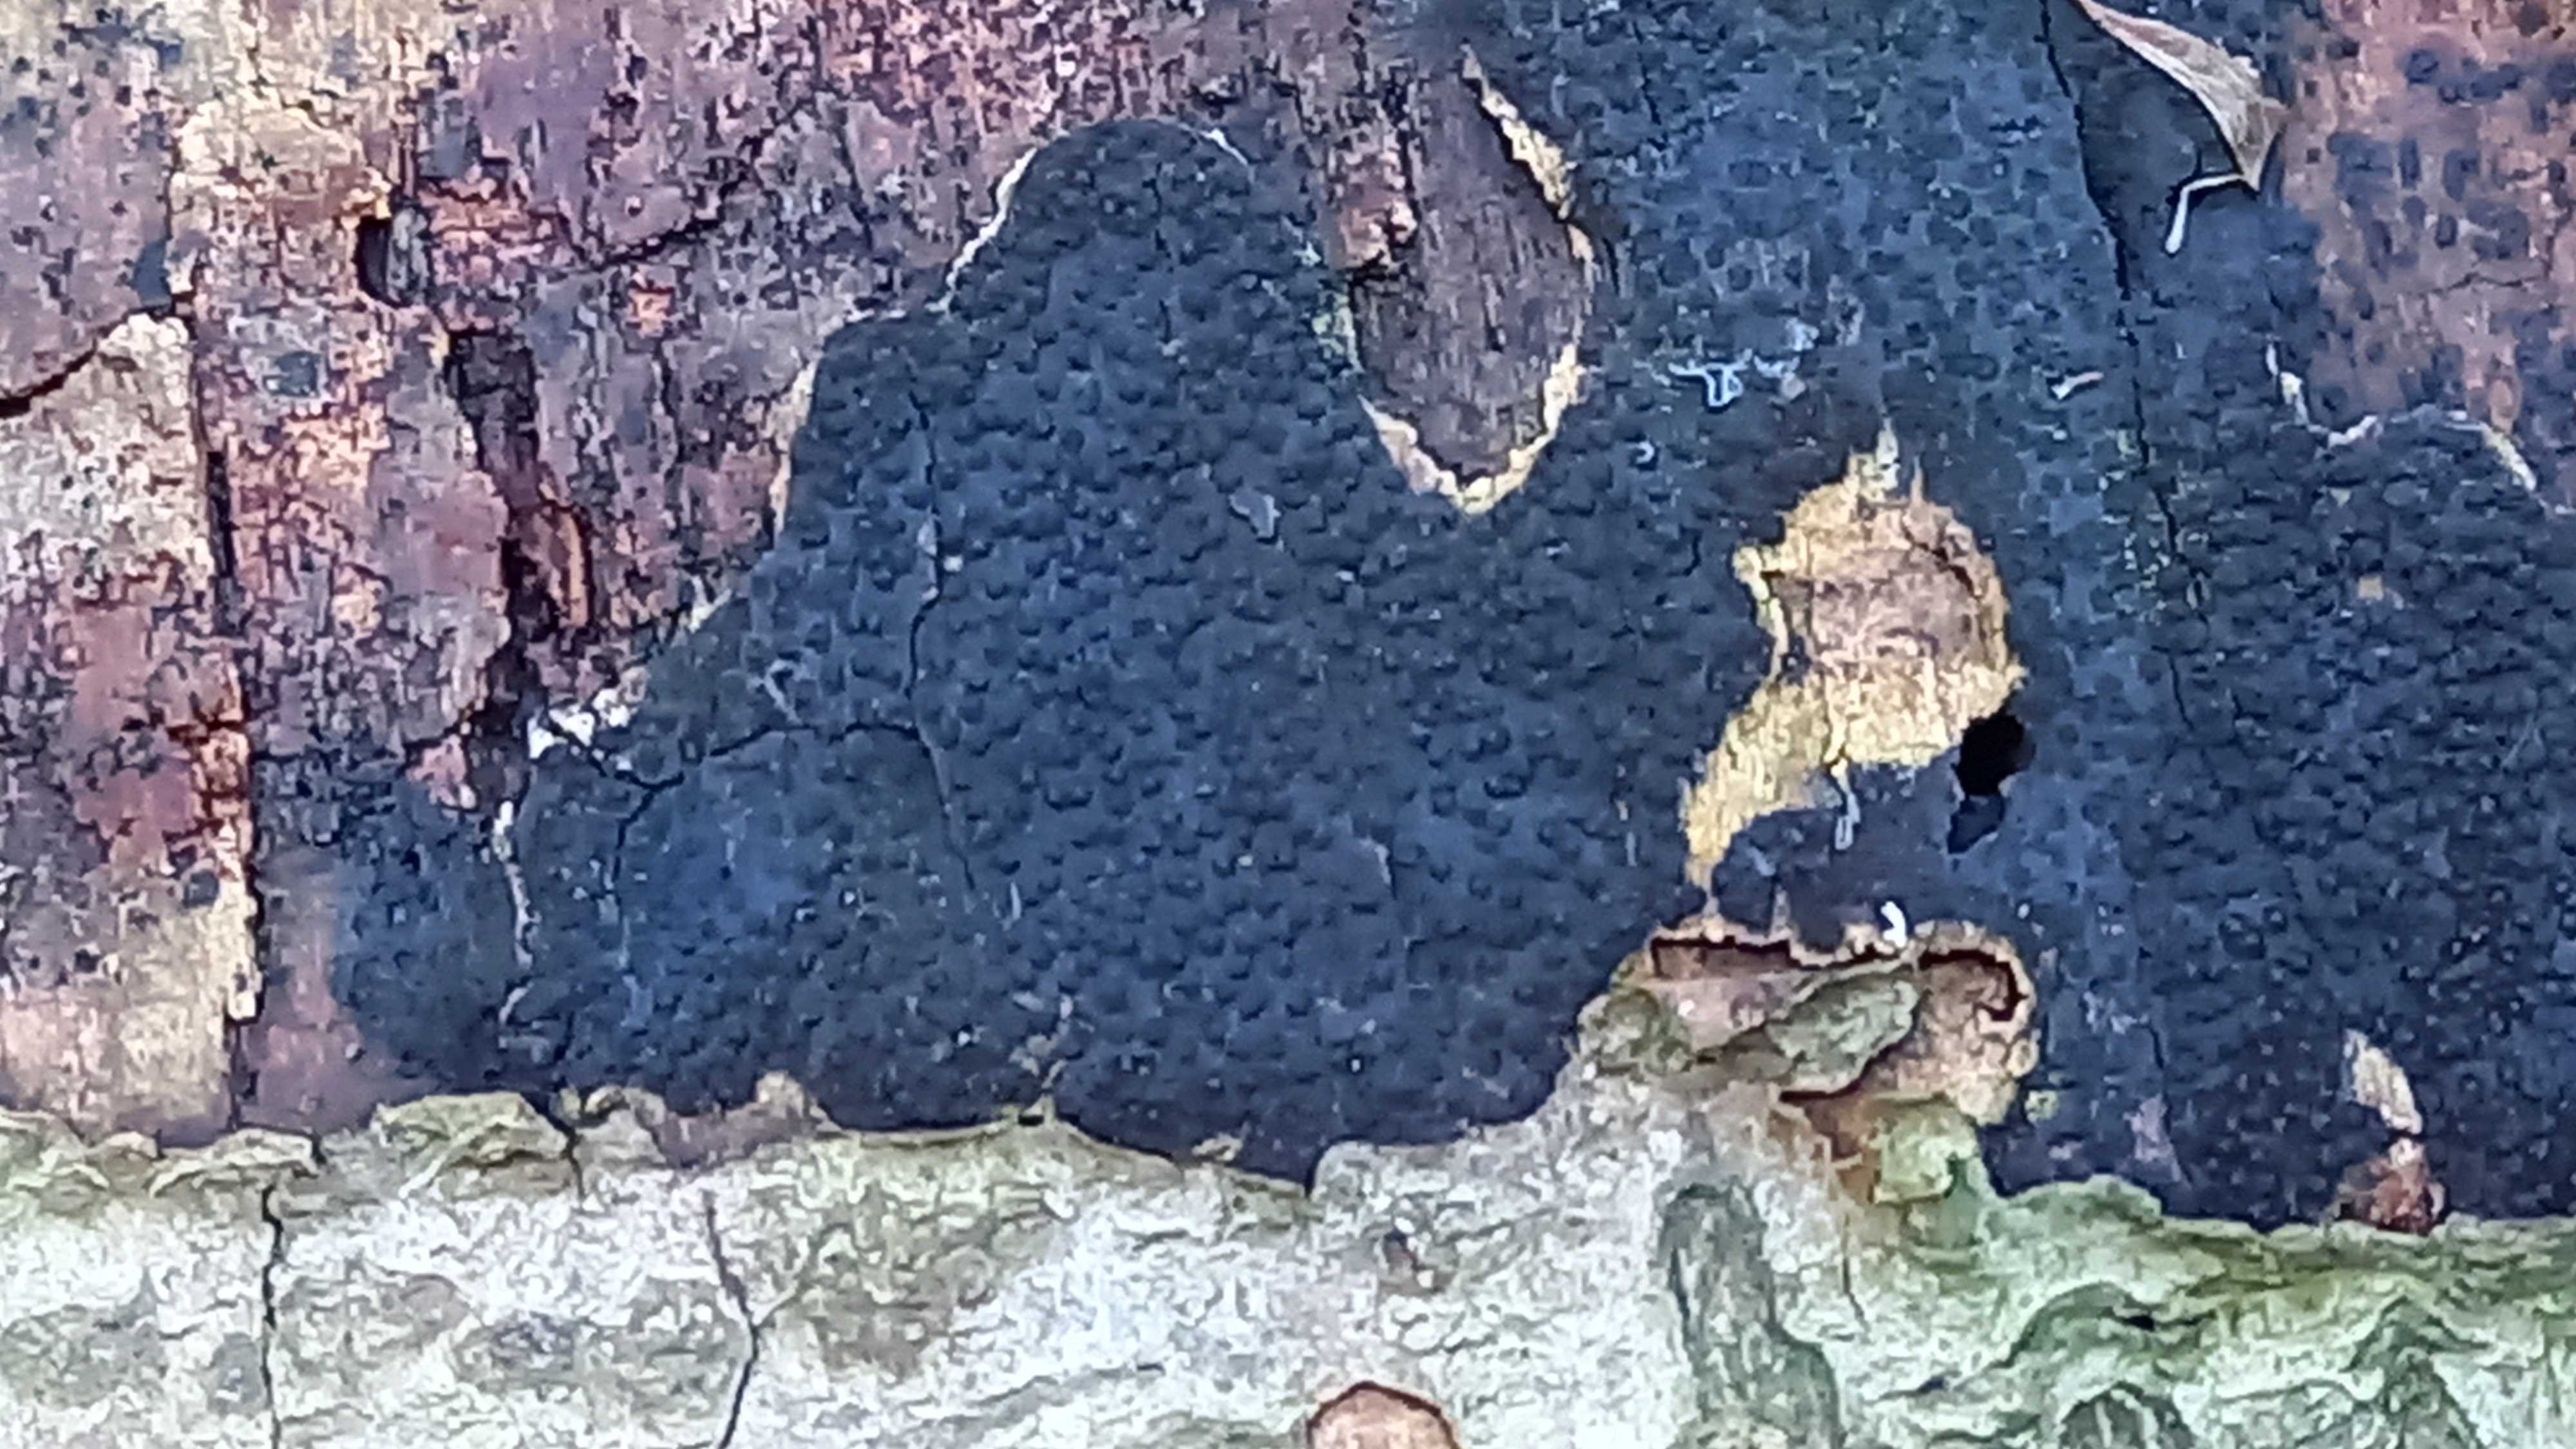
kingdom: Fungi
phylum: Ascomycota
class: Sordariomycetes
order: Xylariales
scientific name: Xylariales
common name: stødsvampordenen
